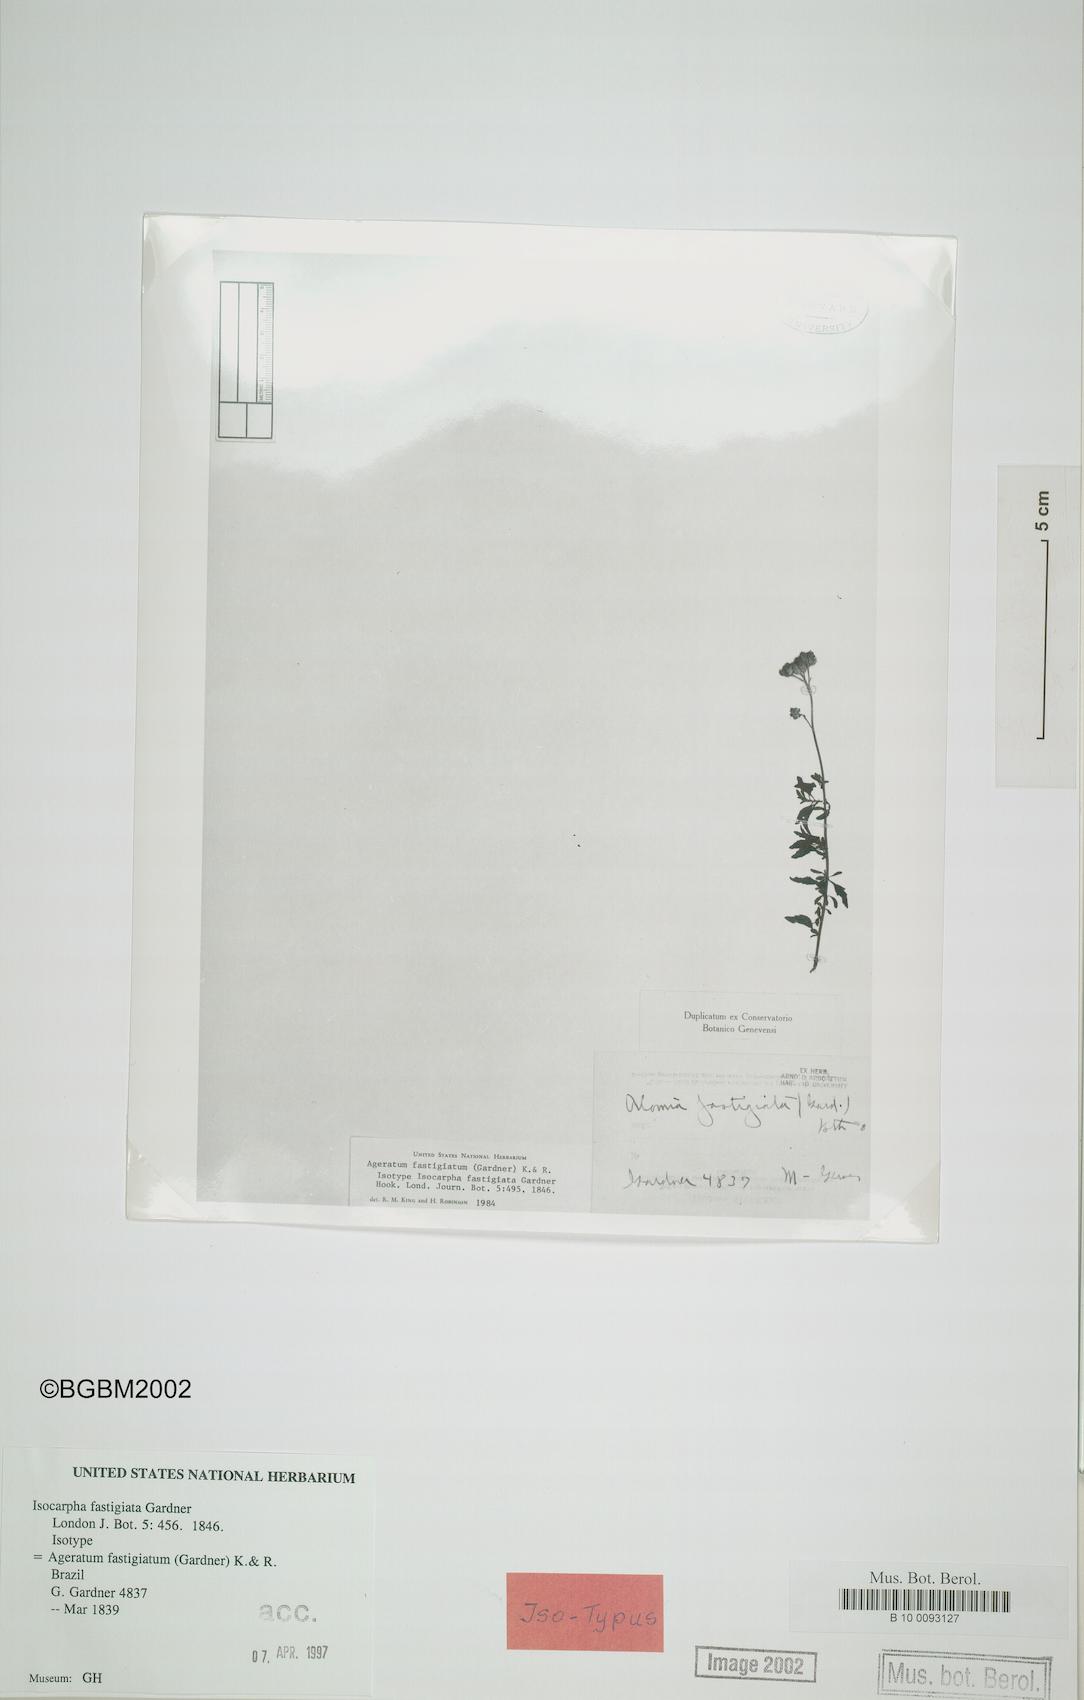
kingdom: Plantae
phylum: Tracheophyta
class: Magnoliopsida
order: Asterales
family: Asteraceae
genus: Ageratum
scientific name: Ageratum fastigiatum
